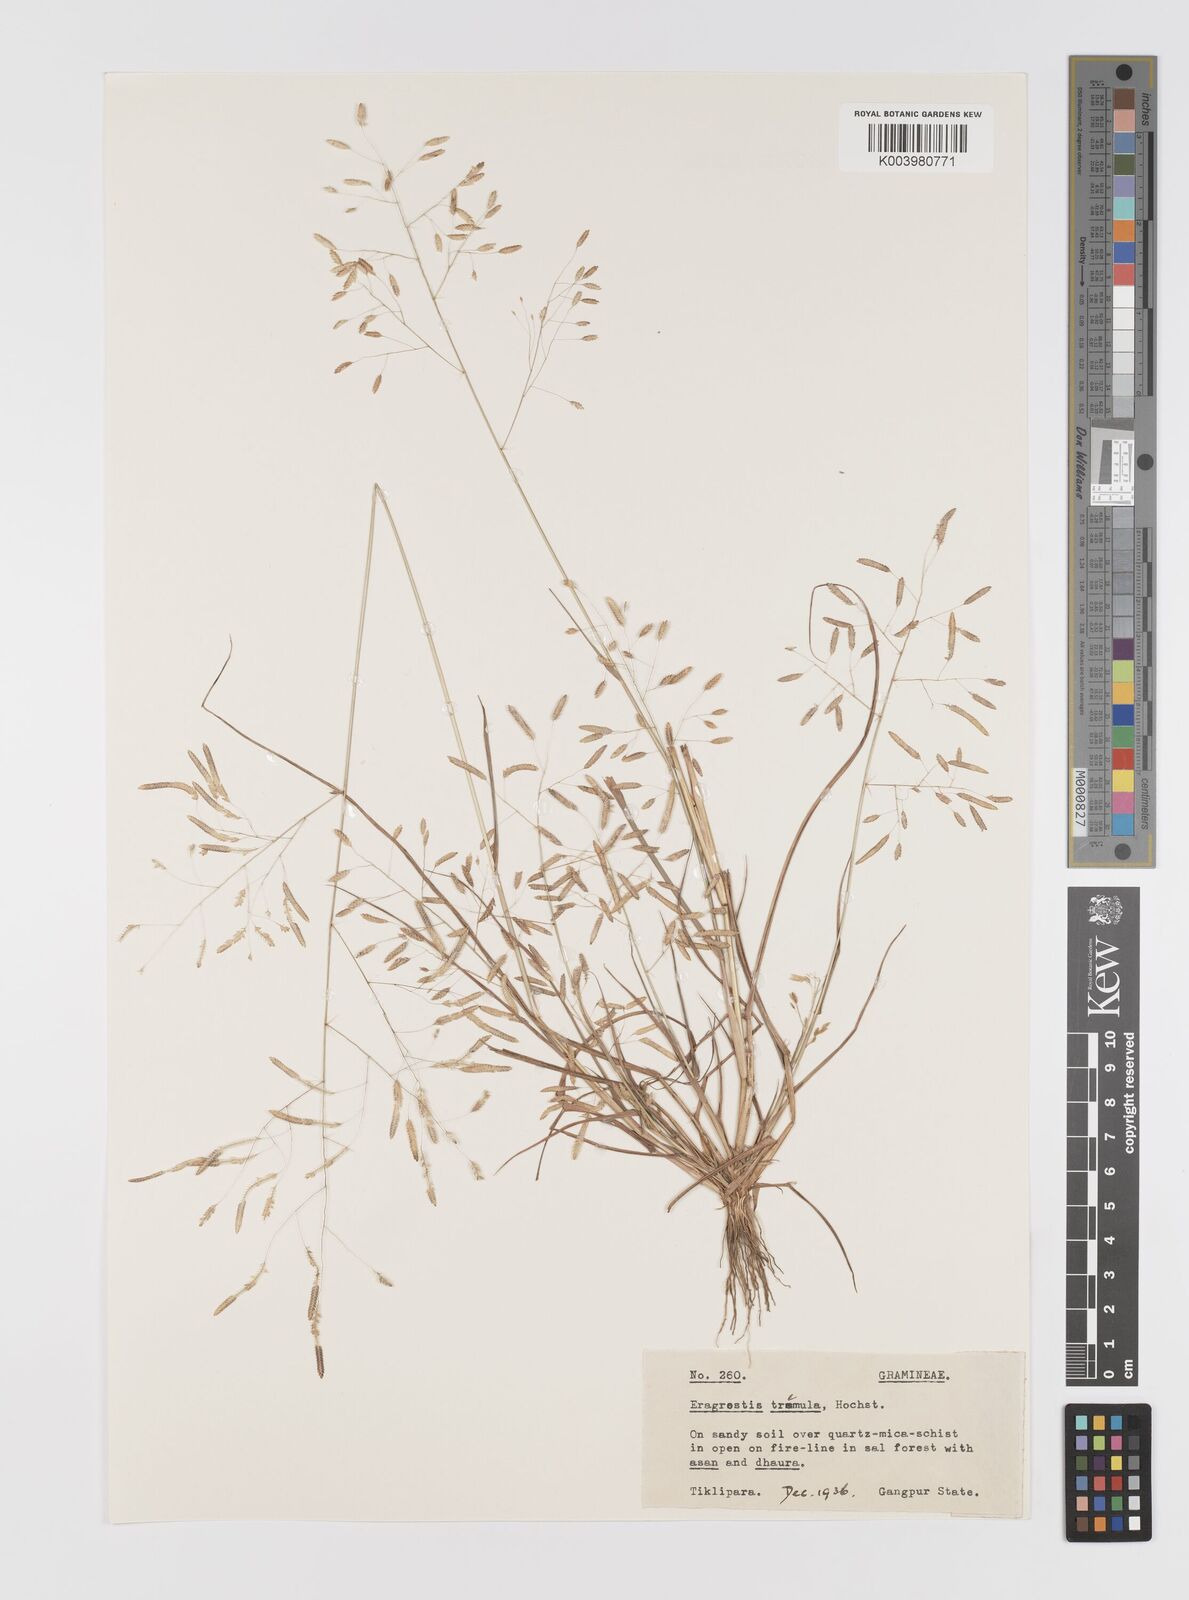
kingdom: Plantae
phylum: Tracheophyta
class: Liliopsida
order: Poales
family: Poaceae
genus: Eragrostis
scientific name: Eragrostis tremula
